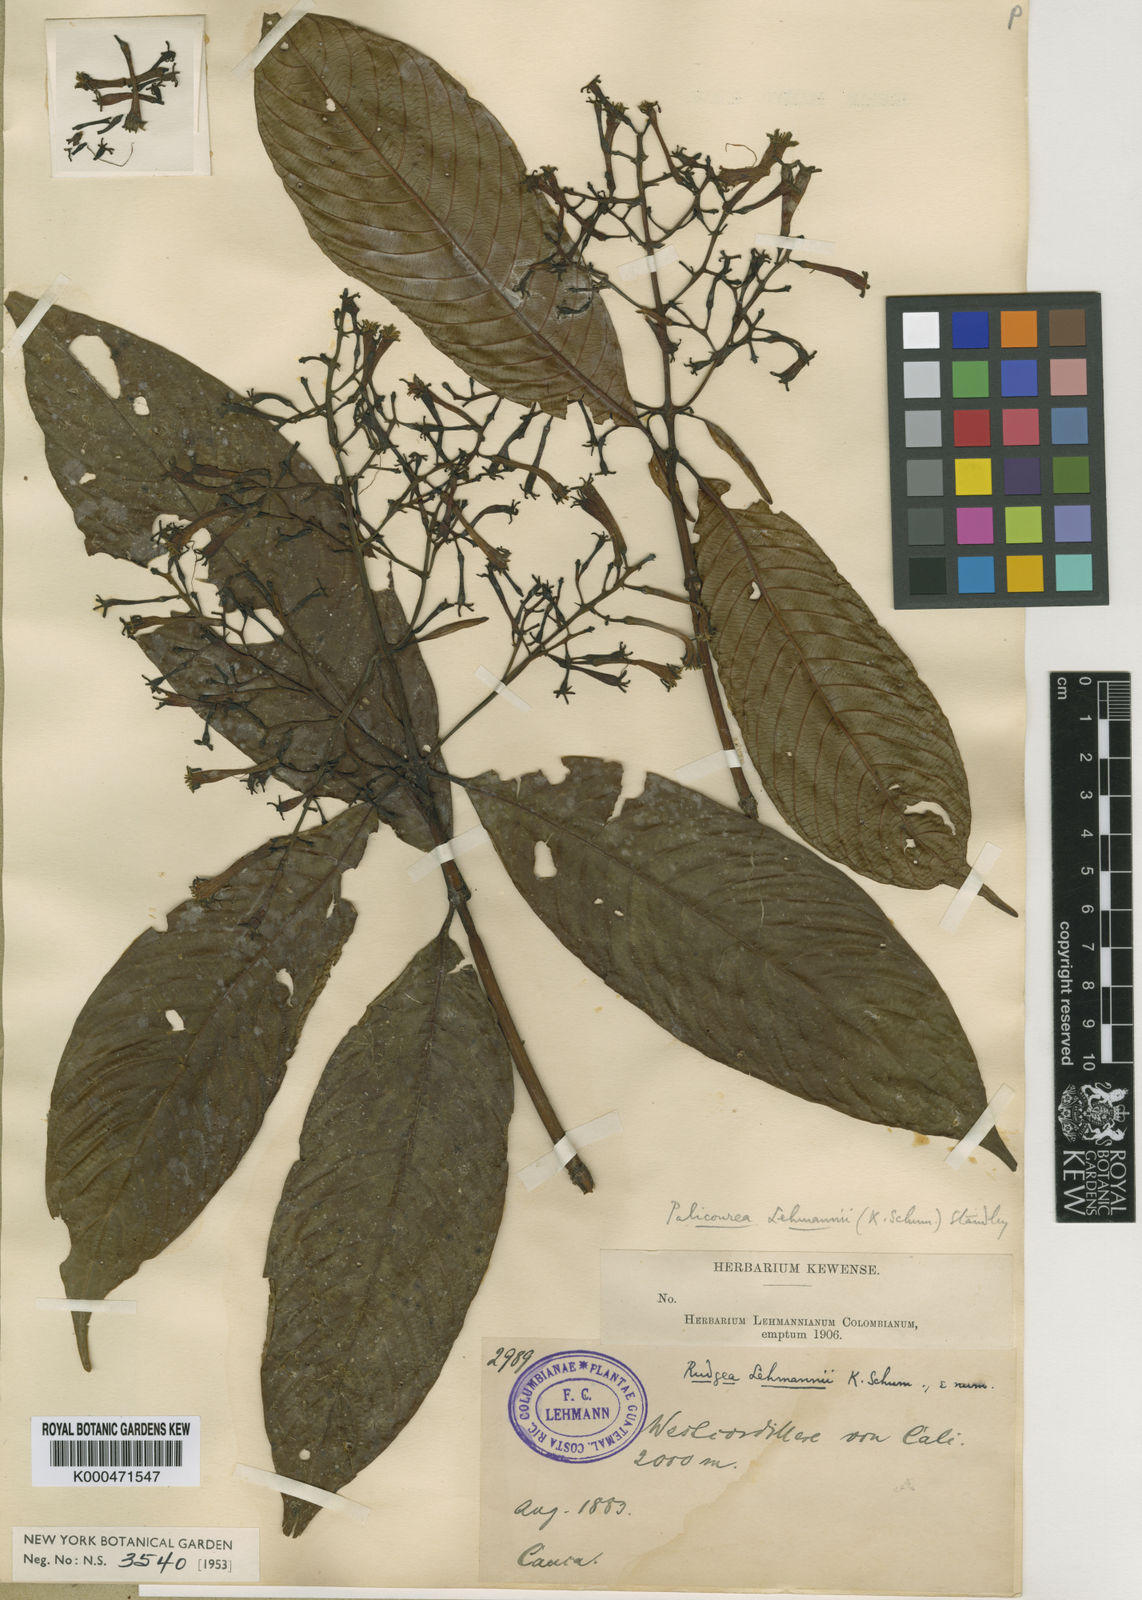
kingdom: Plantae
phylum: Tracheophyta
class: Magnoliopsida
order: Gentianales
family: Rubiaceae
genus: Palicourea
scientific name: Palicourea lehmannii
